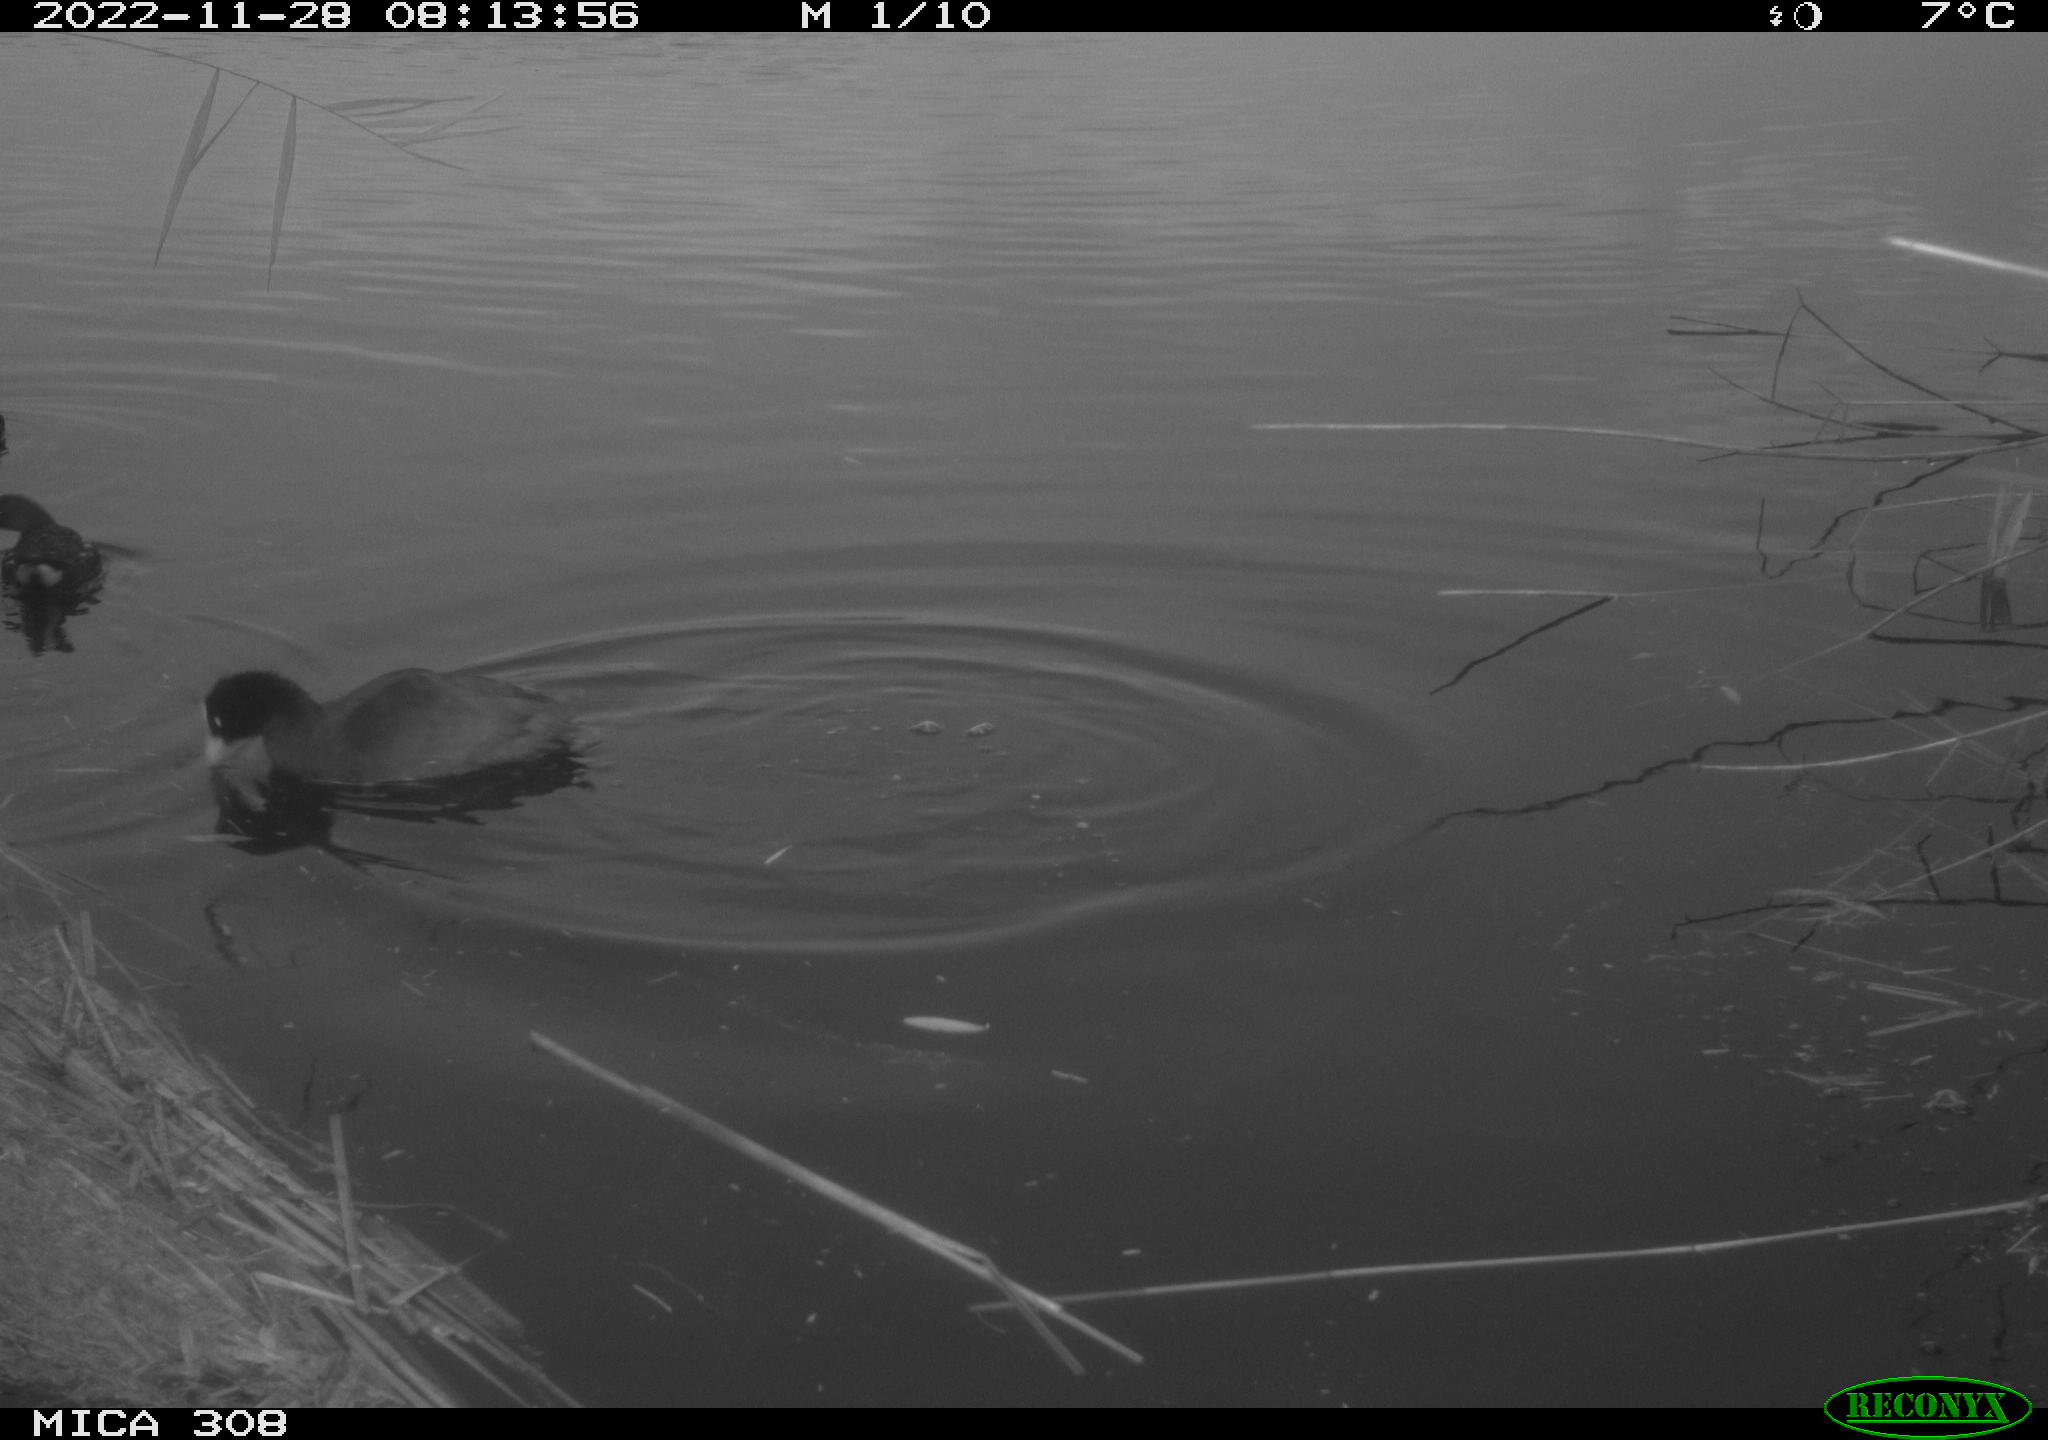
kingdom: Animalia
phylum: Chordata
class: Aves
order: Gruiformes
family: Rallidae
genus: Fulica
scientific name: Fulica atra
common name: Eurasian coot
